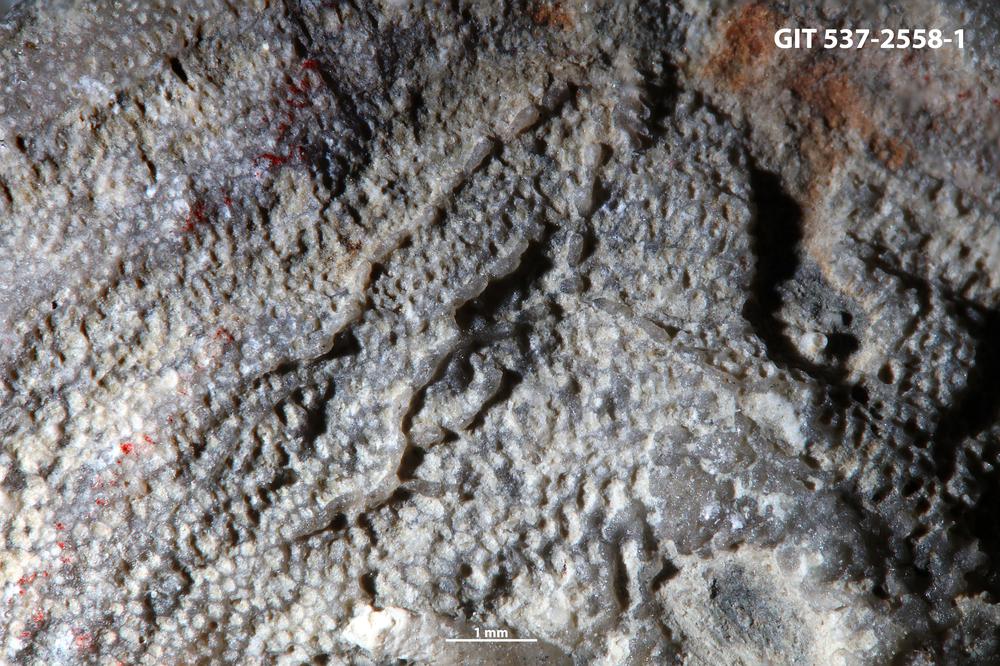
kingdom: Animalia
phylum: Bryozoa
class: Stenolaemata
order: Cyclostomatida
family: Corynotrypidae
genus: Corynotrypa
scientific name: Corynotrypa delicatula
